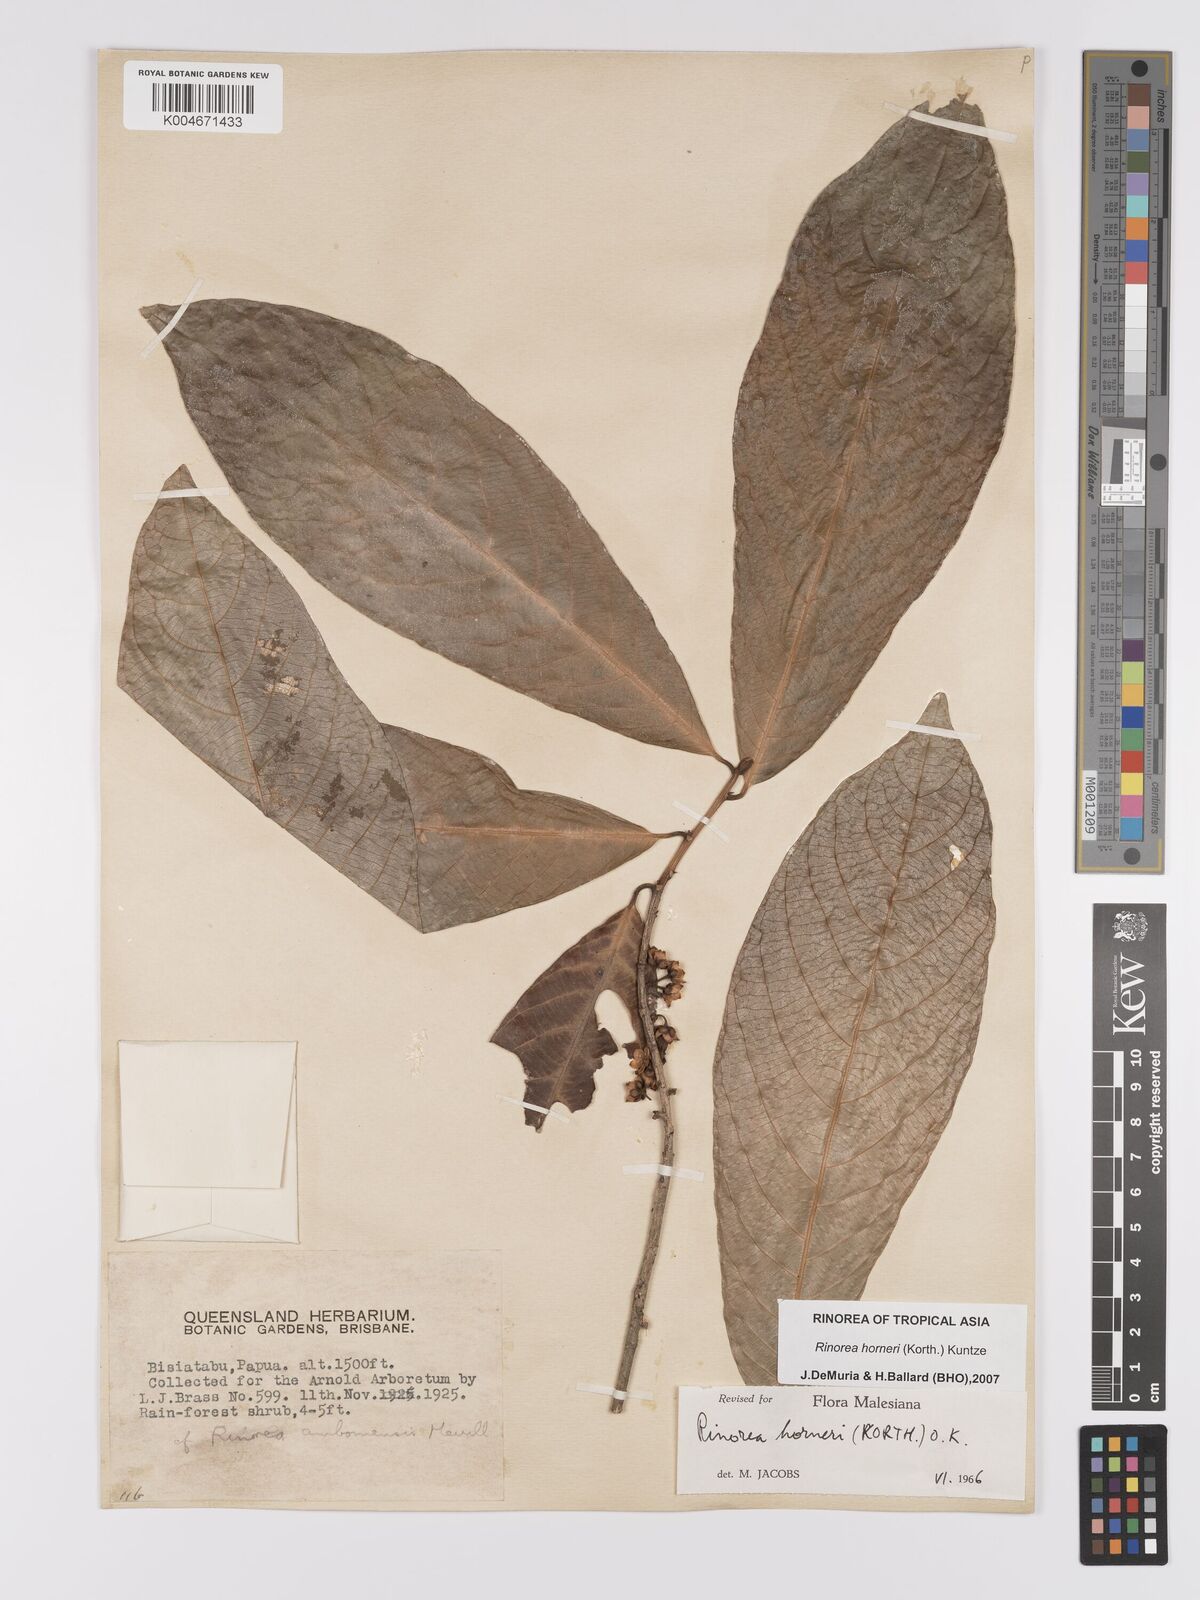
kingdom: Plantae
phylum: Tracheophyta
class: Magnoliopsida
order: Malpighiales
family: Violaceae
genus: Rinorea
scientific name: Rinorea horneri
